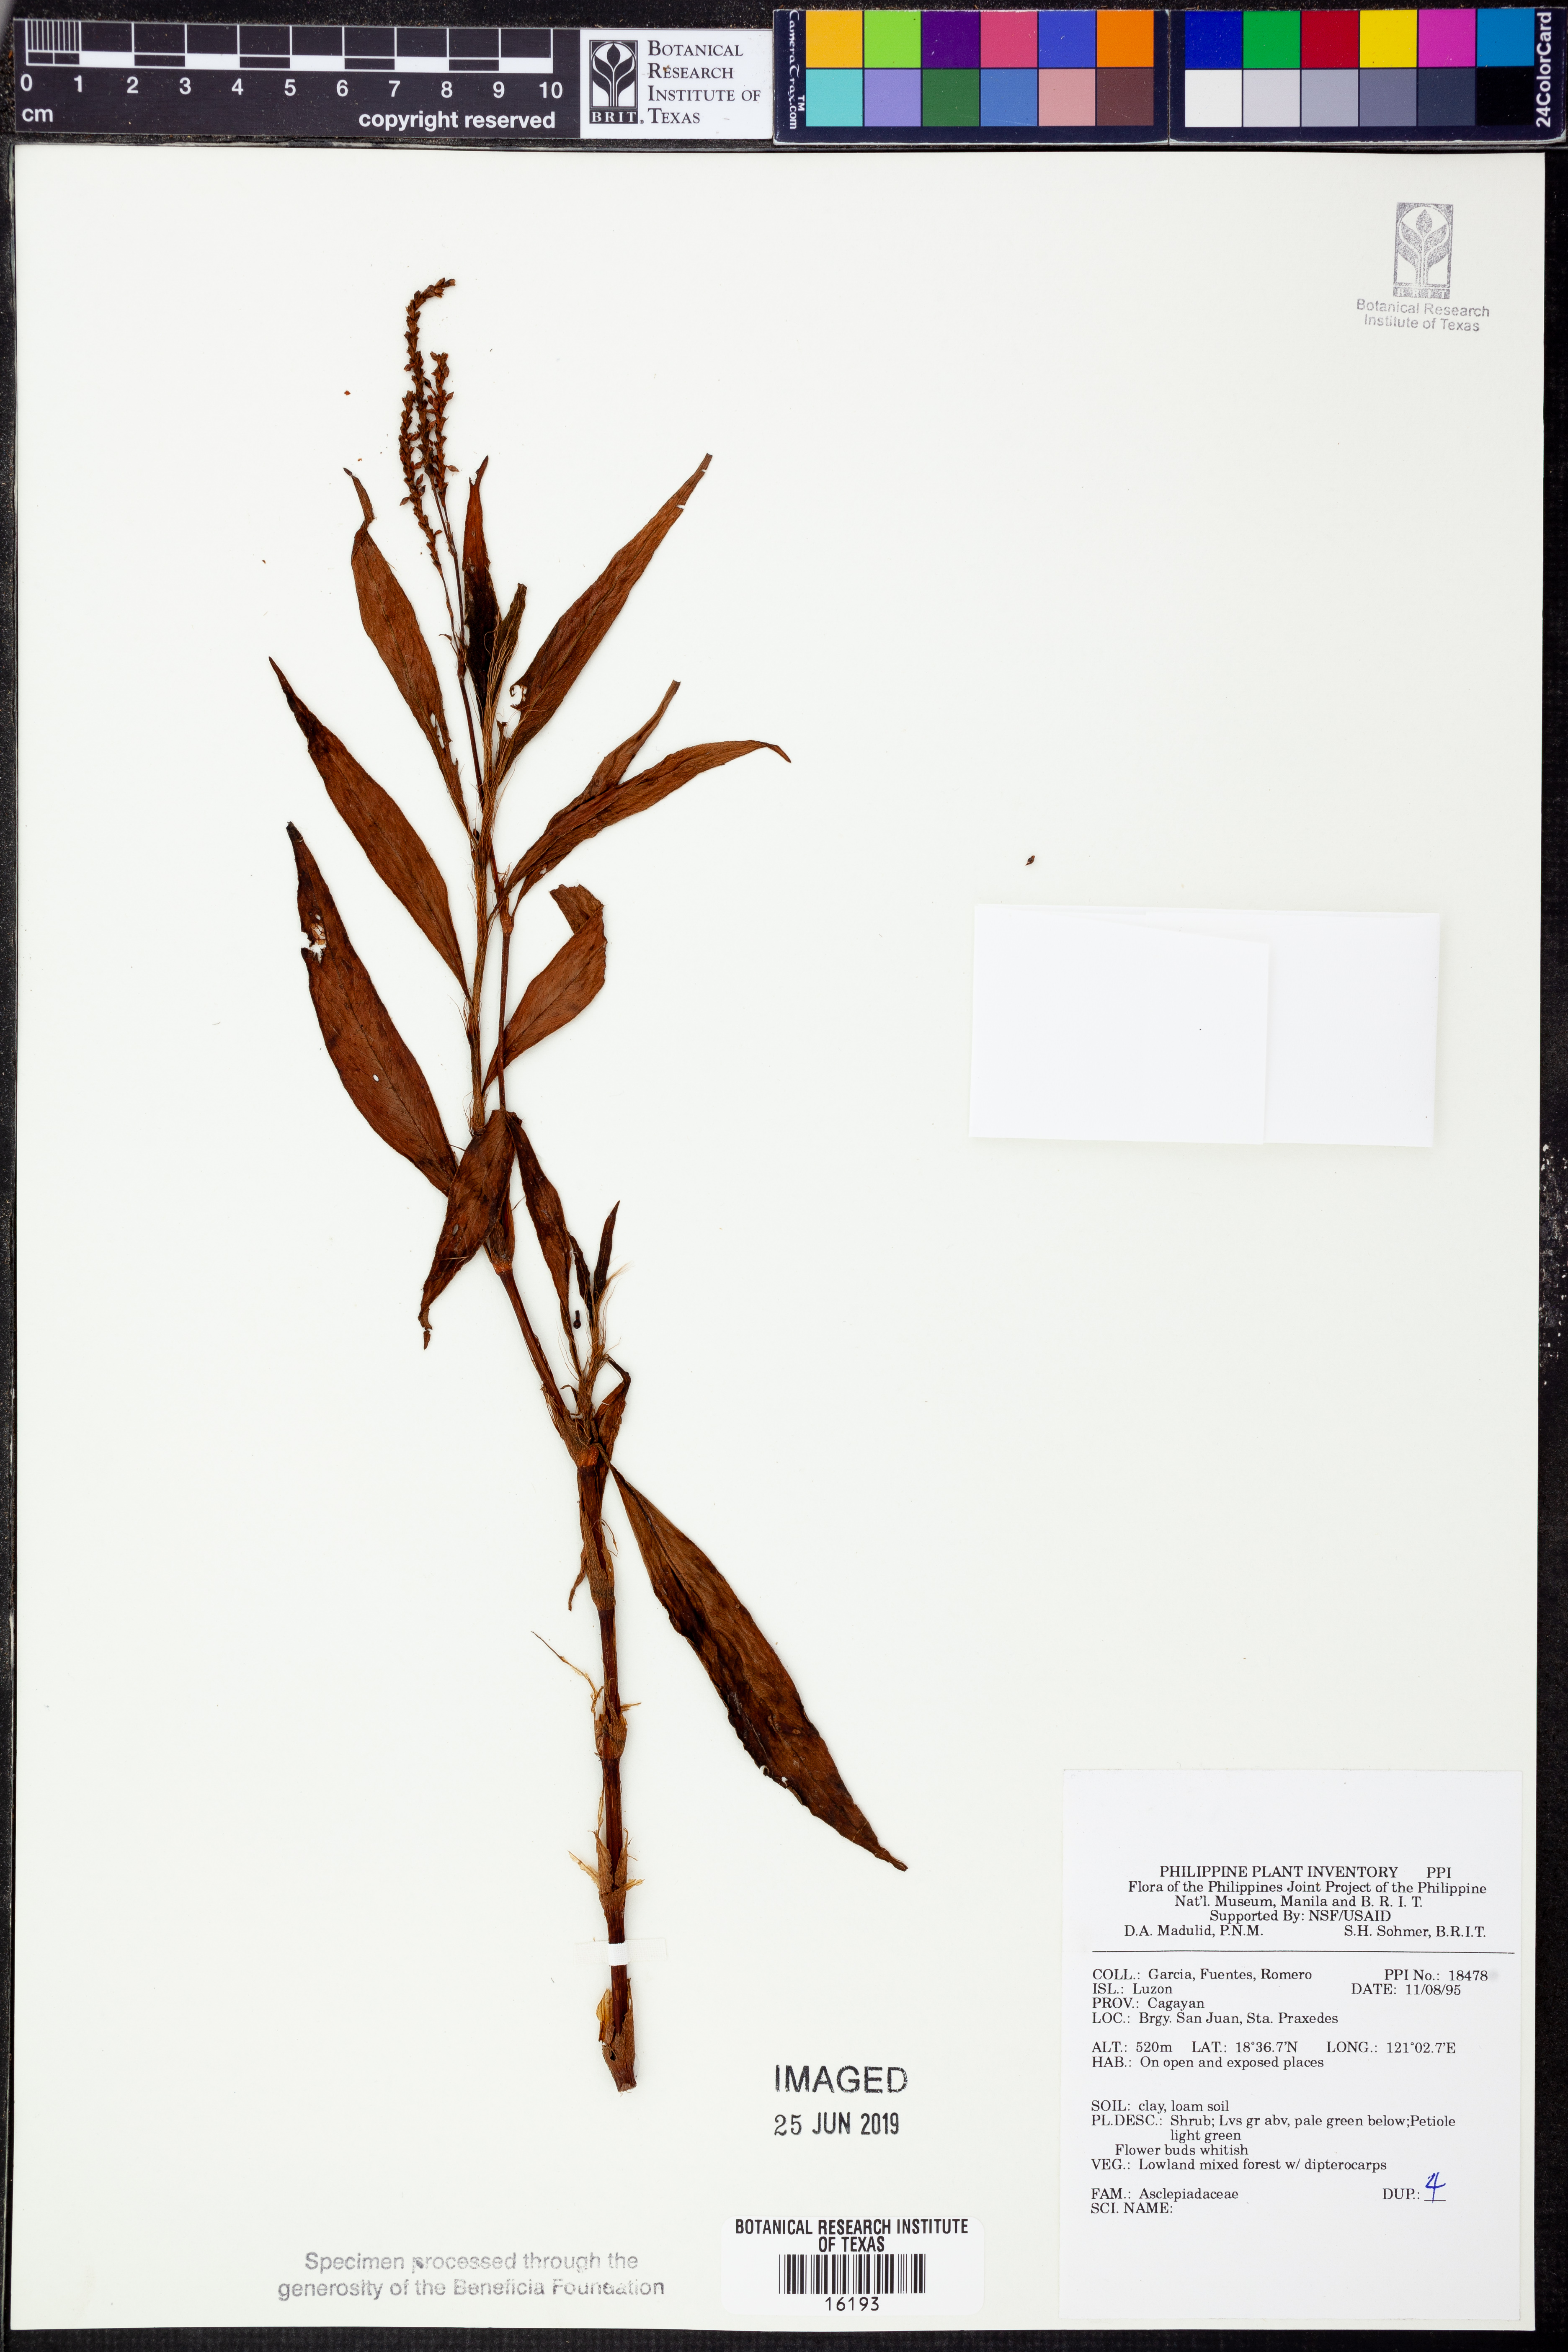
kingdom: Plantae
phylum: Tracheophyta
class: Magnoliopsida
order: Gentianales
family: Apocynaceae
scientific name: Apocynaceae
